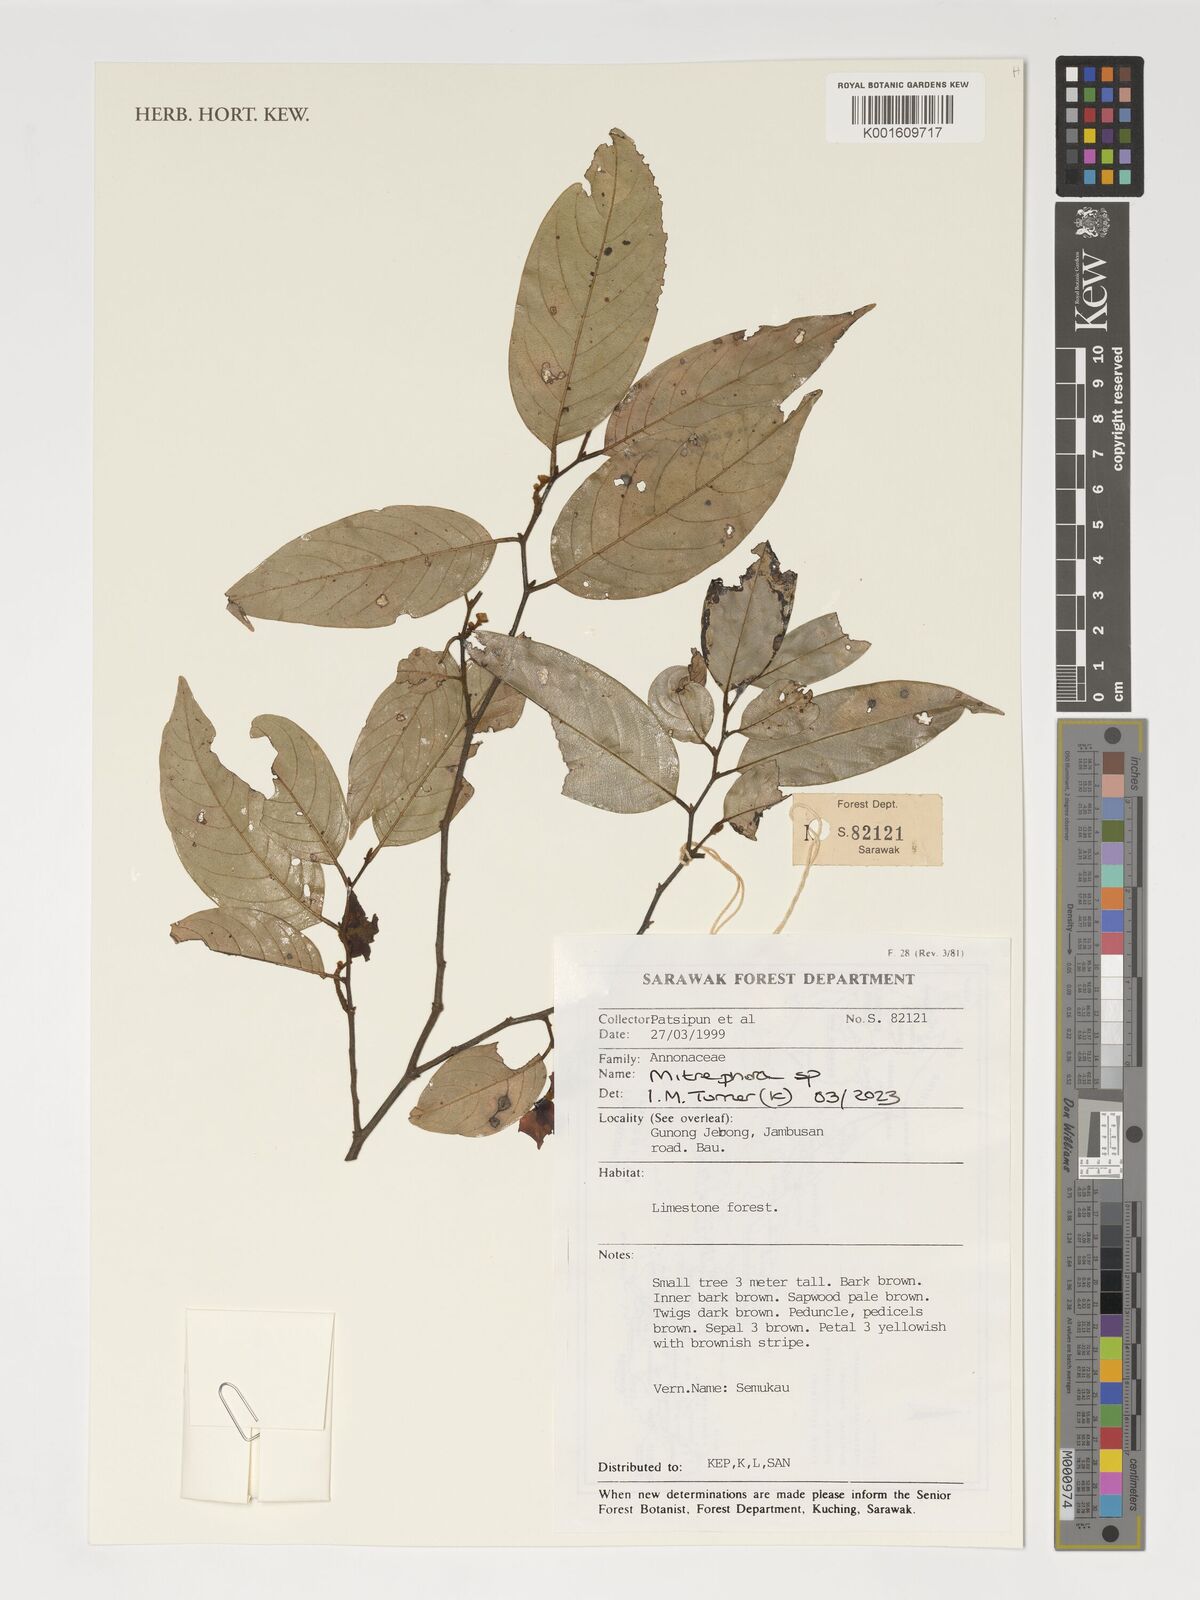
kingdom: Plantae
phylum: Tracheophyta
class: Magnoliopsida
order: Magnoliales
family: Annonaceae
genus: Mitrephora
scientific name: Mitrephora
